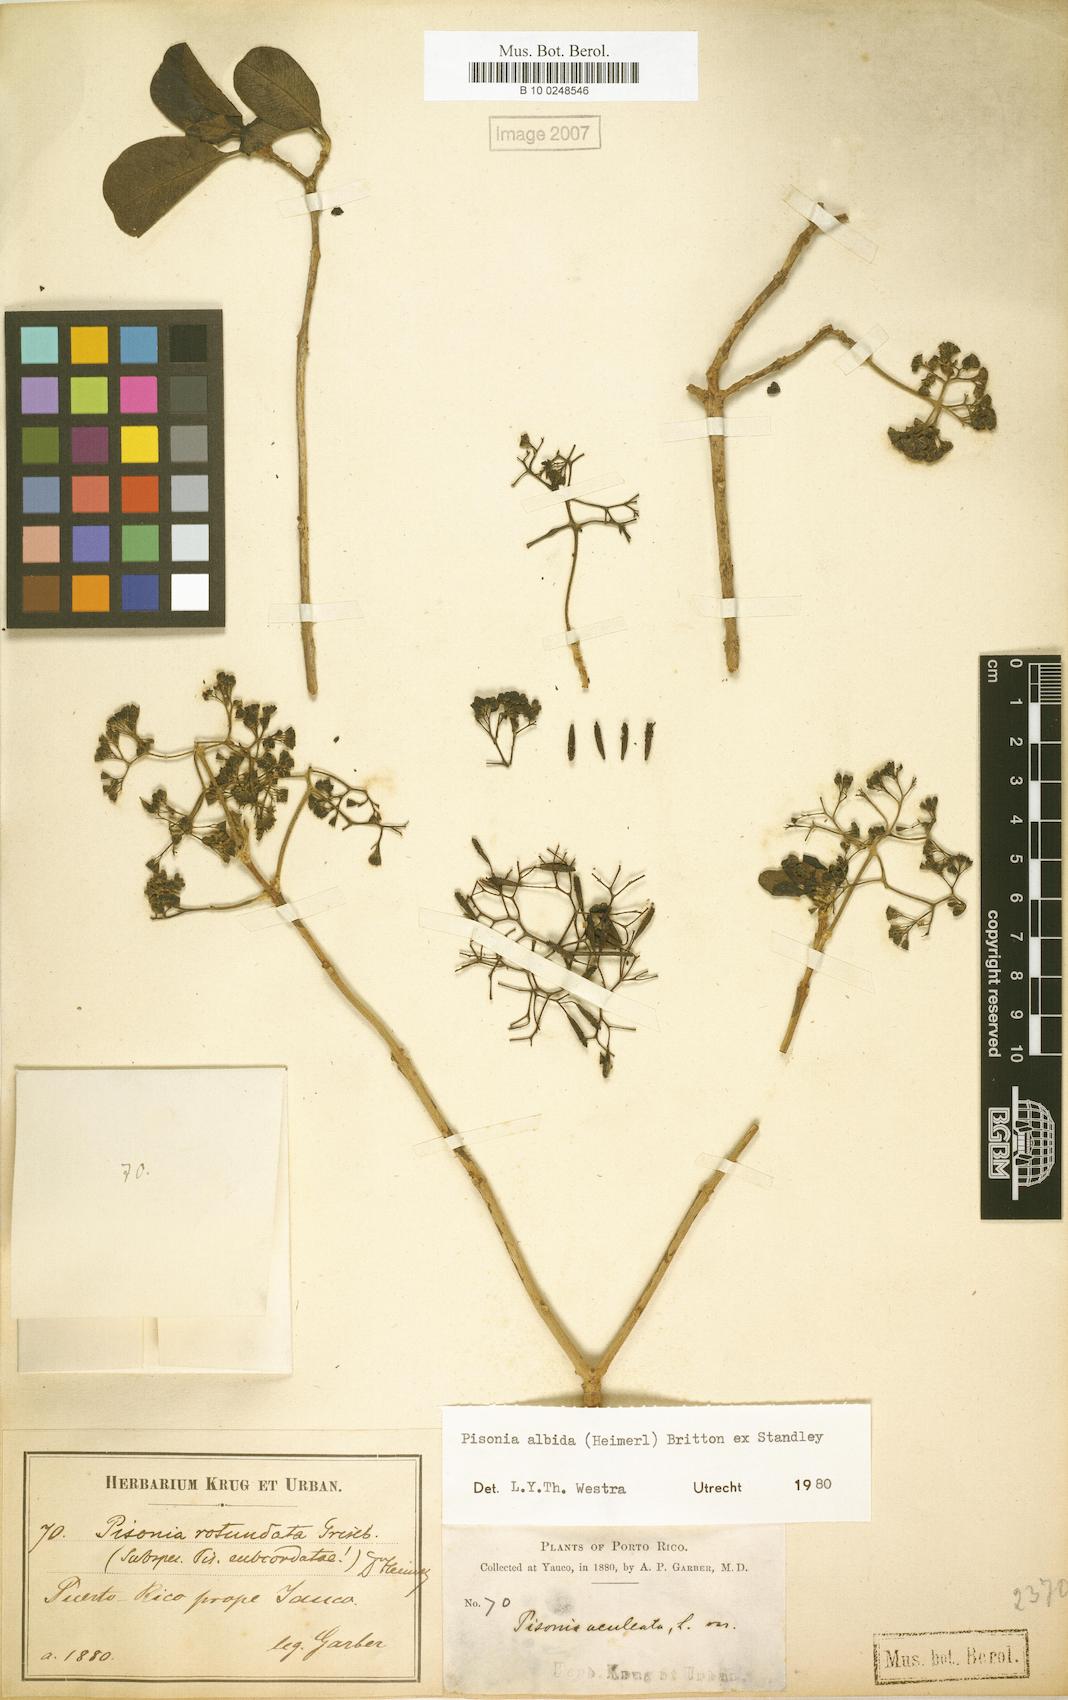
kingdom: Plantae
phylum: Tracheophyta
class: Magnoliopsida
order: Caryophyllales
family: Nyctaginaceae
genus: Pisonia
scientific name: Pisonia albida
